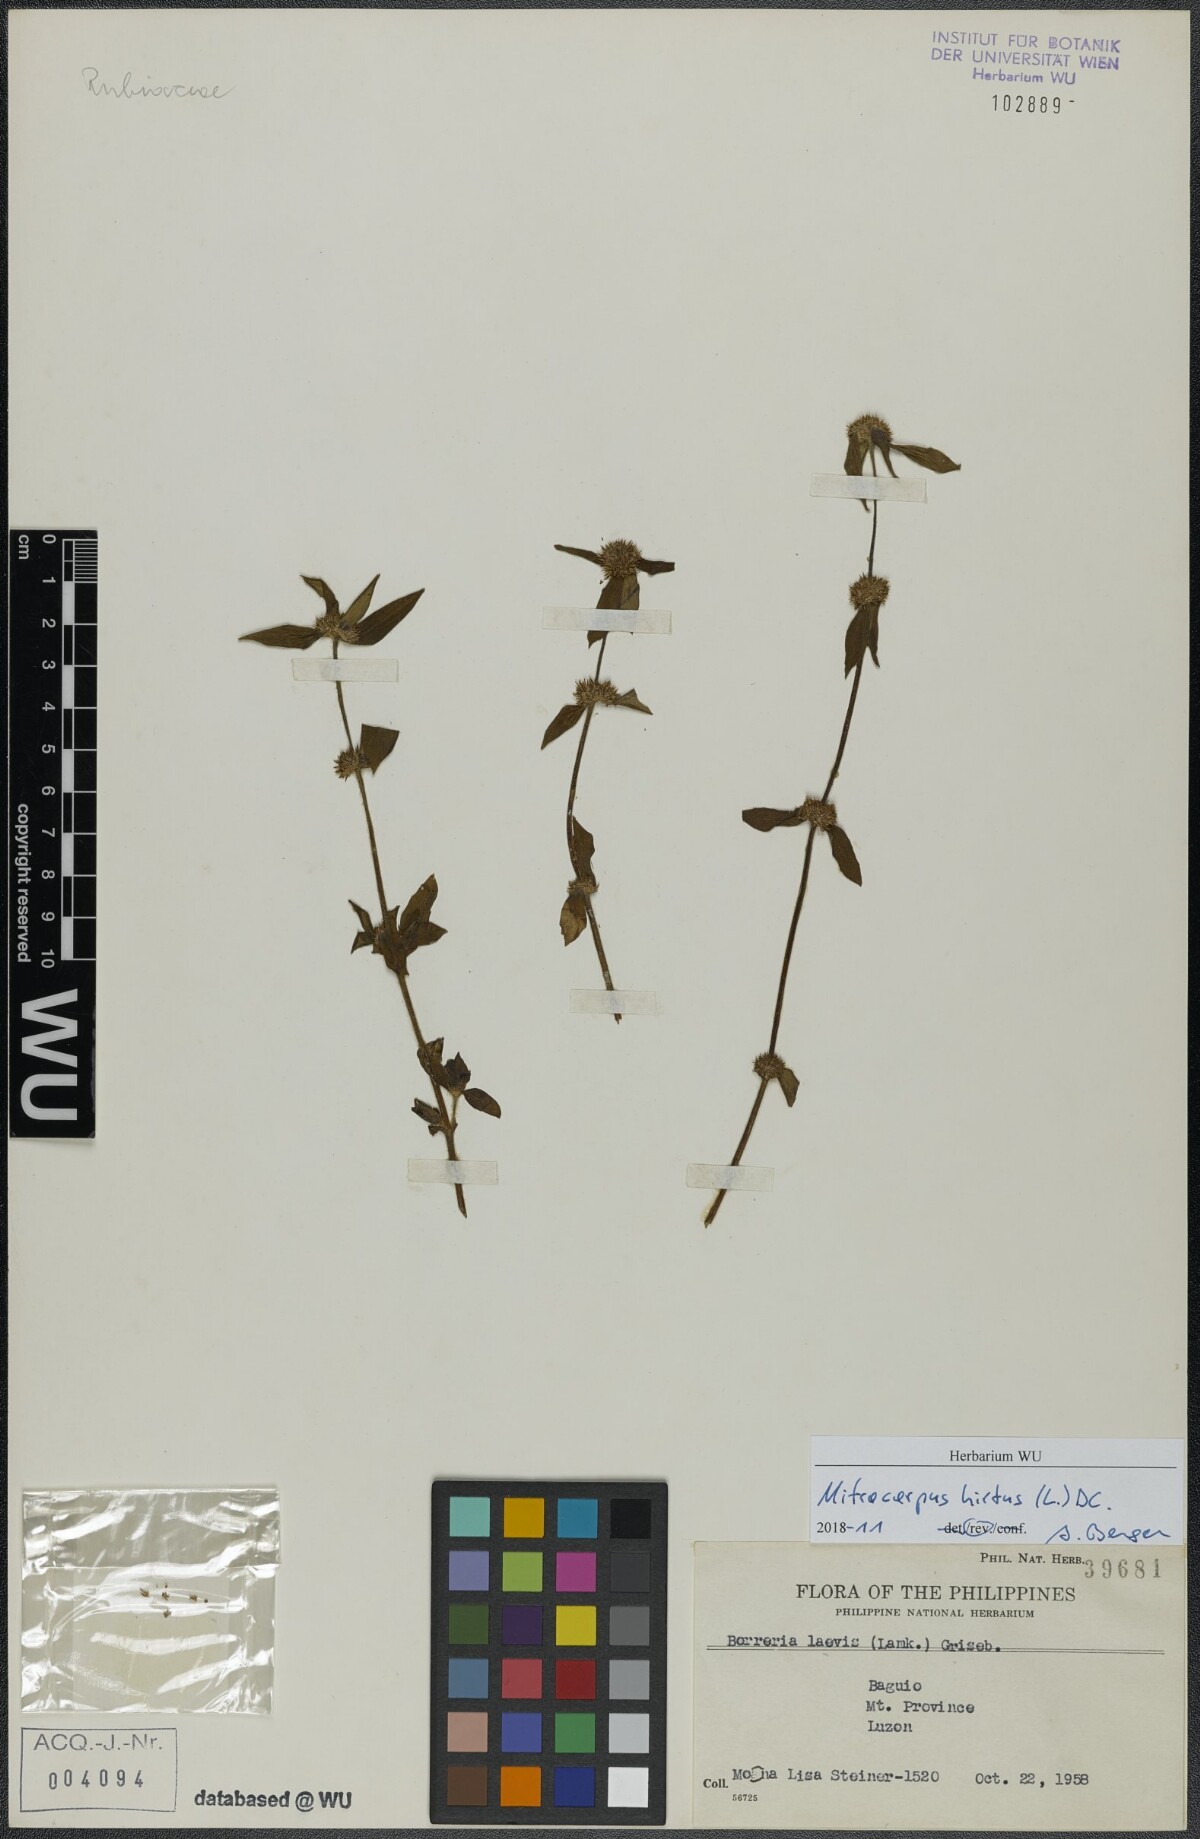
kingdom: Plantae
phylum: Tracheophyta
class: Magnoliopsida
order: Gentianales
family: Rubiaceae
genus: Mitracarpus
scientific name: Mitracarpus hirtus
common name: Tropical girdlepod
